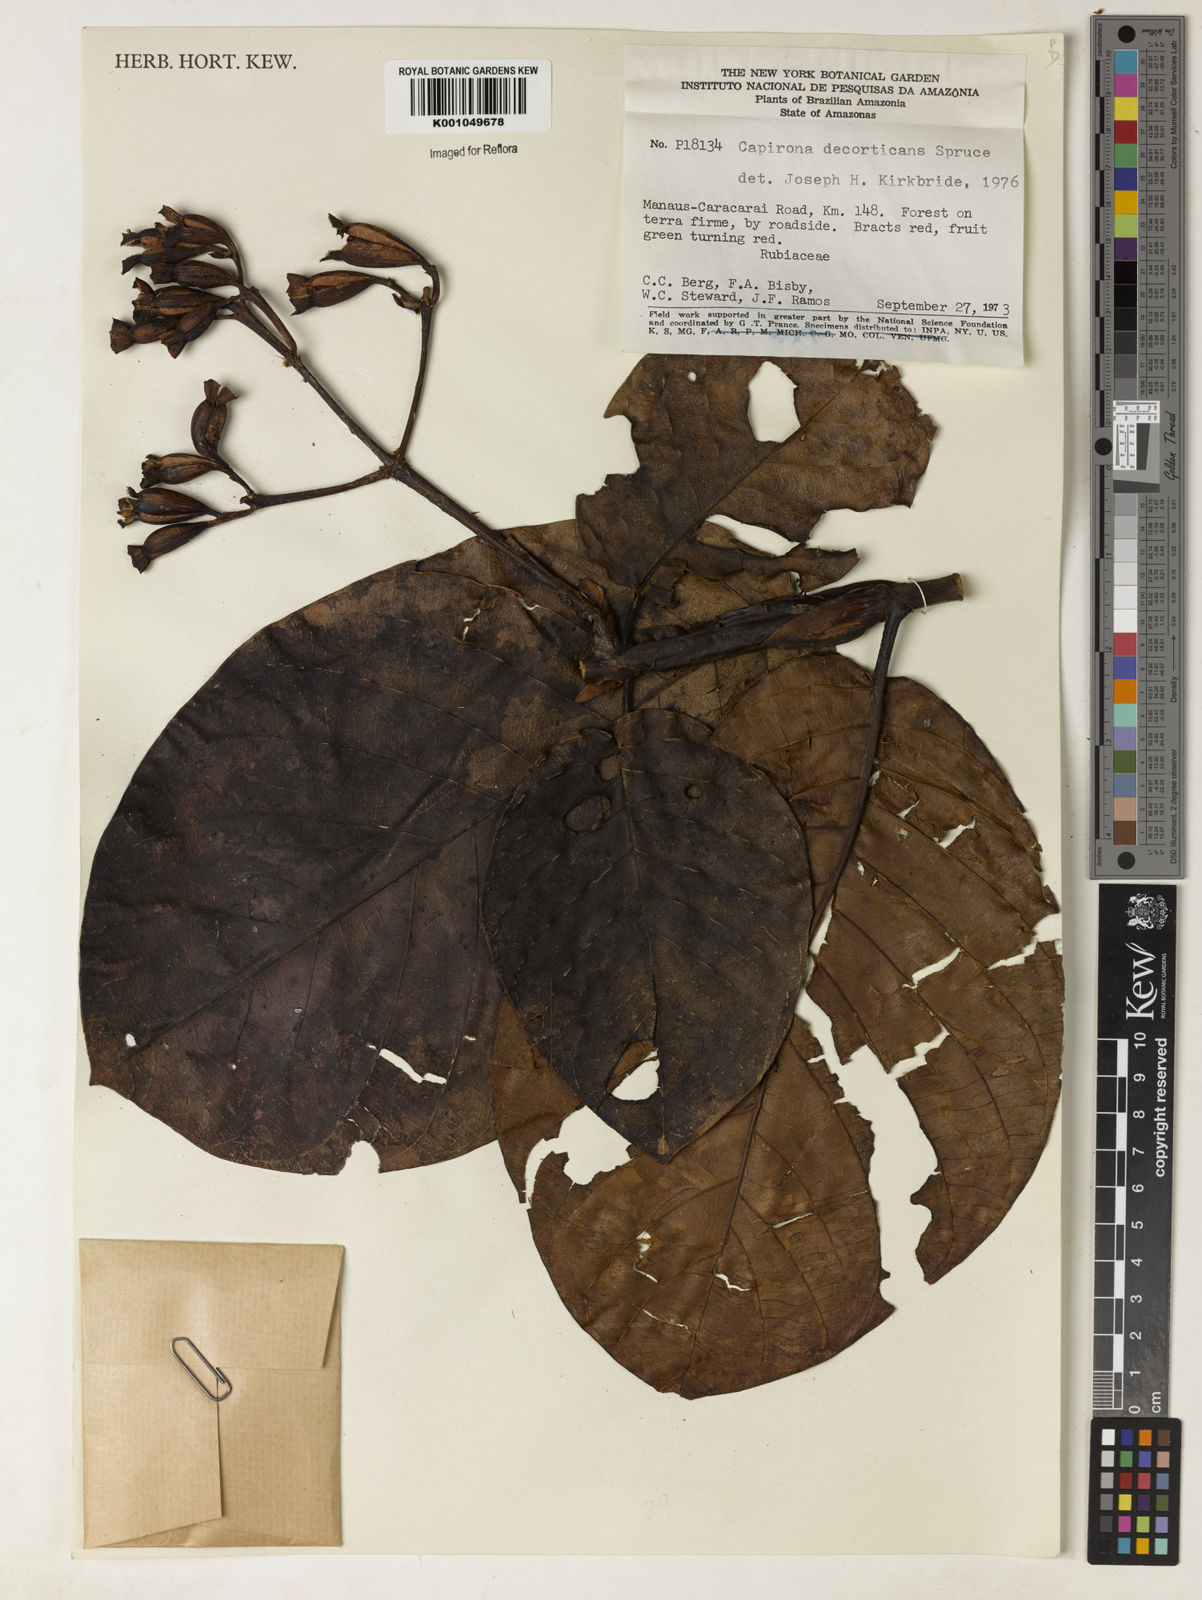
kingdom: Plantae
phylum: Tracheophyta
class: Magnoliopsida
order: Gentianales
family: Rubiaceae
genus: Capirona
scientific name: Capirona macrophylla
